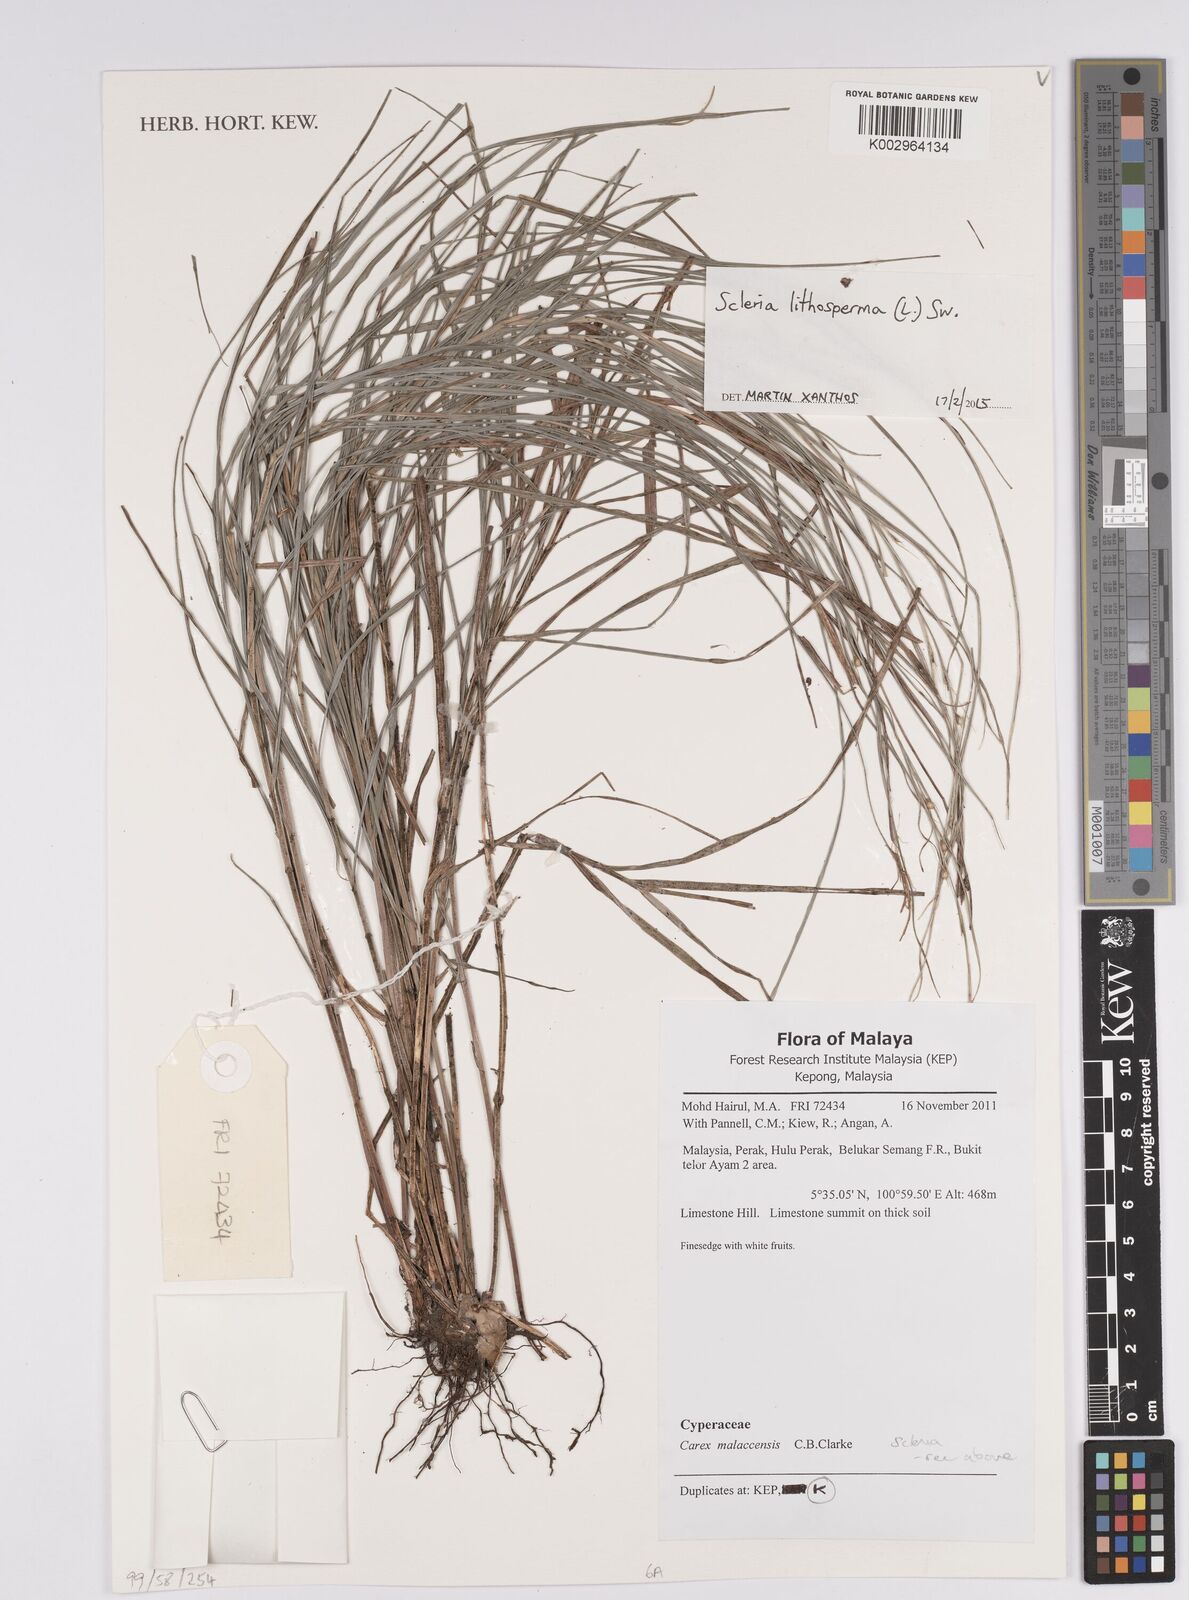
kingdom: Plantae
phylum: Tracheophyta
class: Liliopsida
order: Poales
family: Cyperaceae
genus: Scleria
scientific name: Scleria lithosperma
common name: Florida keys nut-rush
